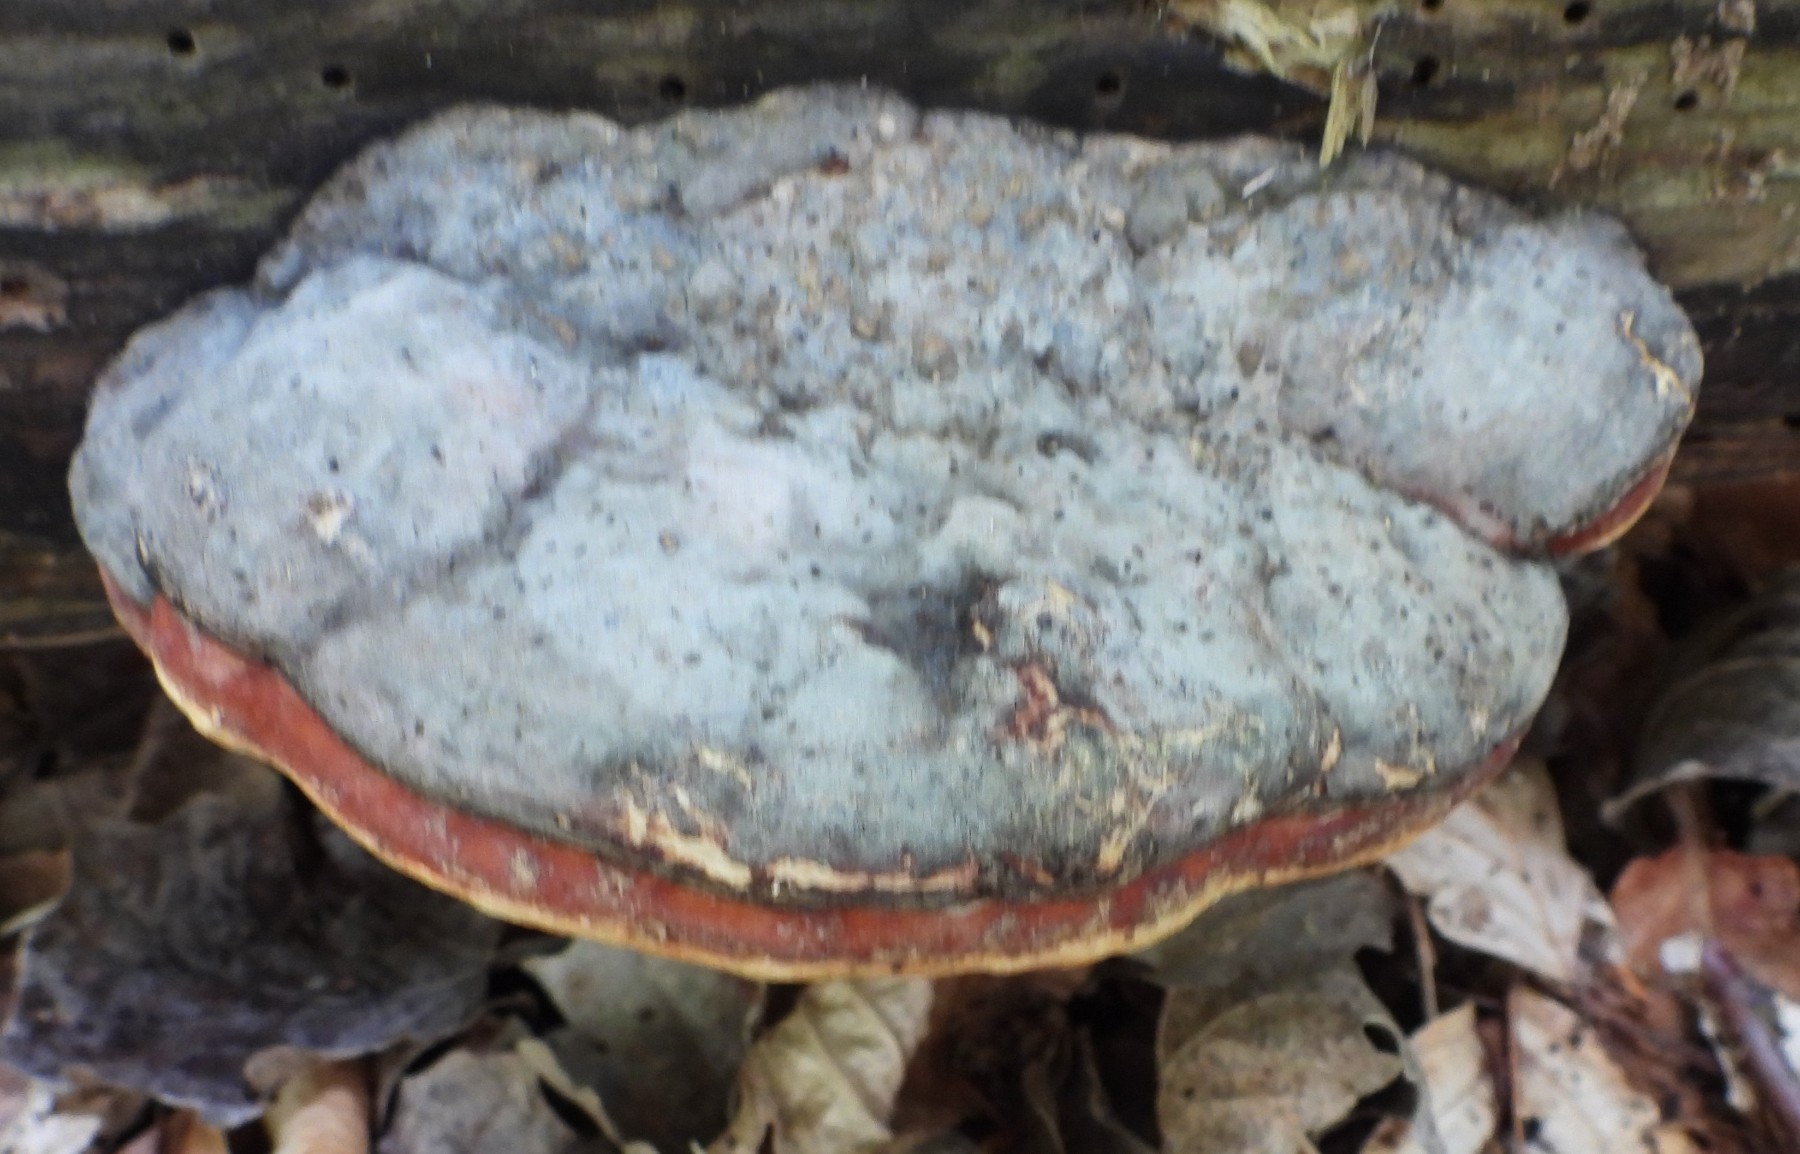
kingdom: Fungi
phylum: Basidiomycota
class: Agaricomycetes
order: Polyporales
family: Fomitopsidaceae
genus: Fomitopsis
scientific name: Fomitopsis pinicola
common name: randbæltet hovporesvamp
